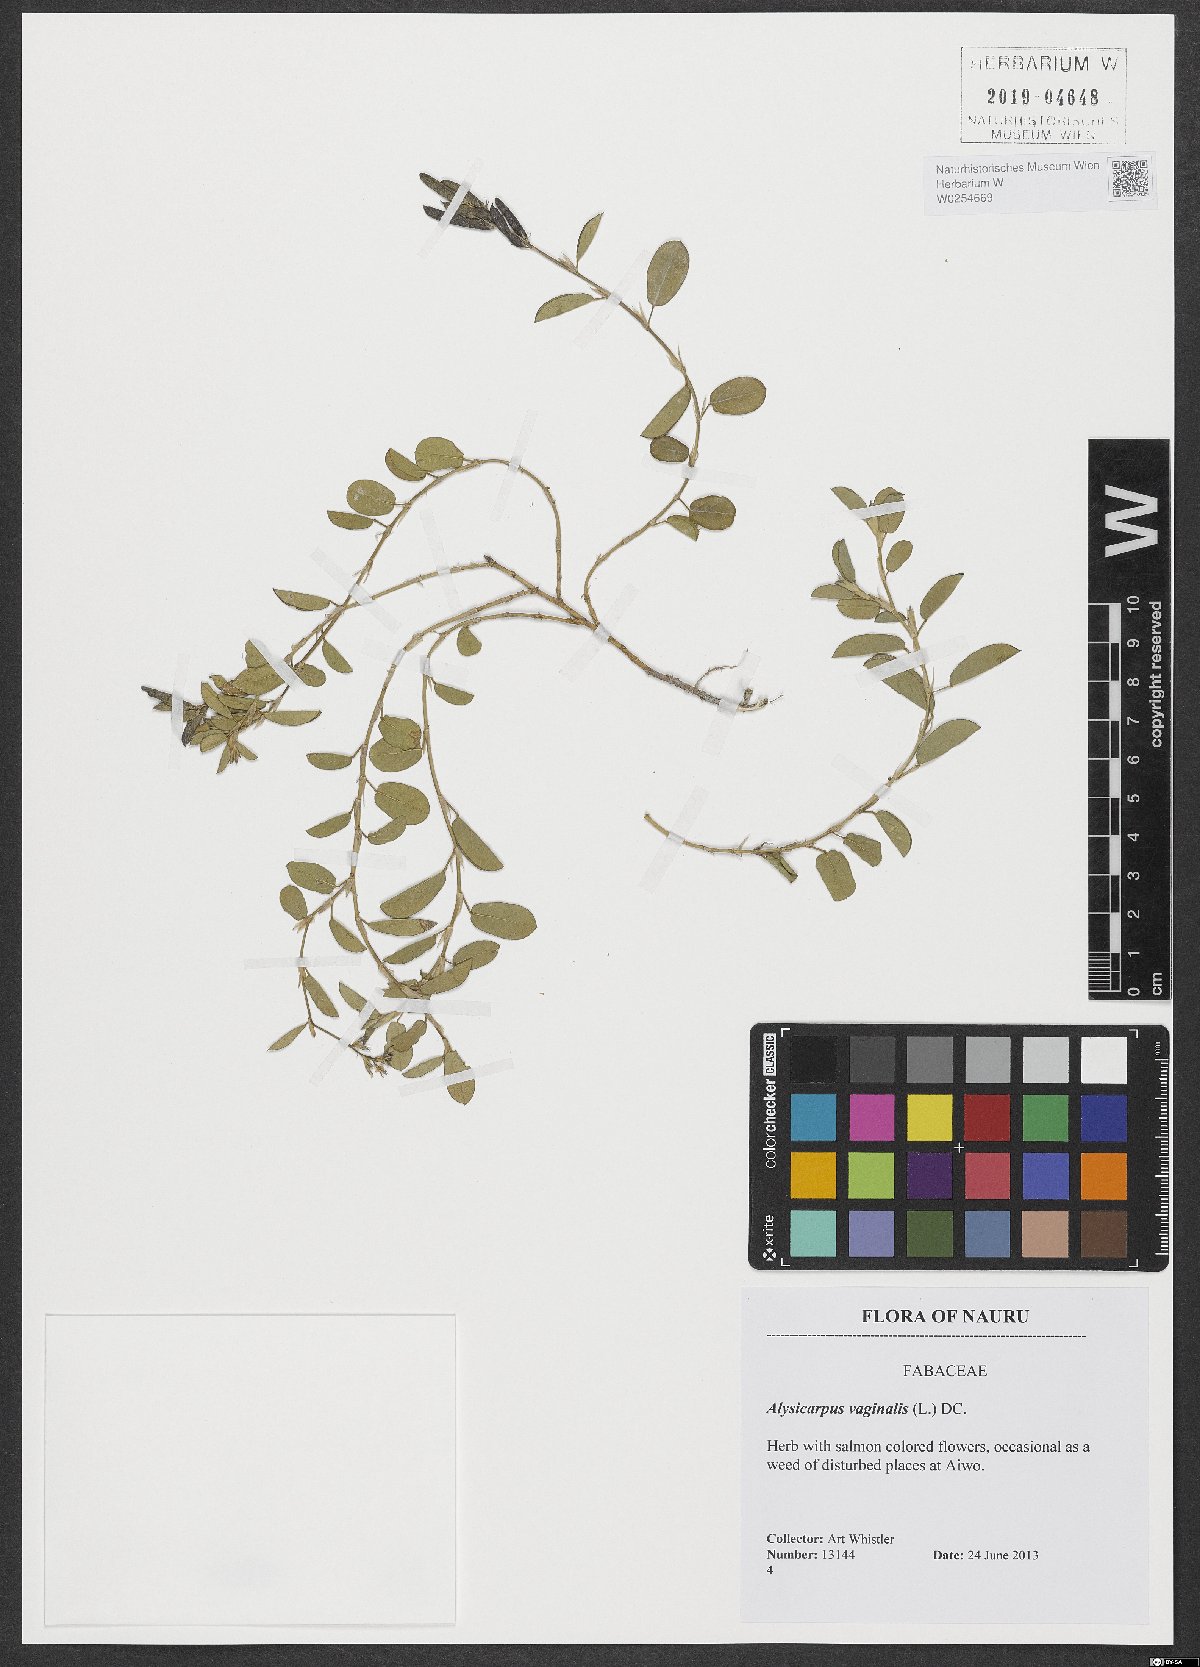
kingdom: Plantae
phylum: Tracheophyta
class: Magnoliopsida
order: Fabales
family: Fabaceae
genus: Alysicarpus
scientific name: Alysicarpus vaginalis
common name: White moneywort
